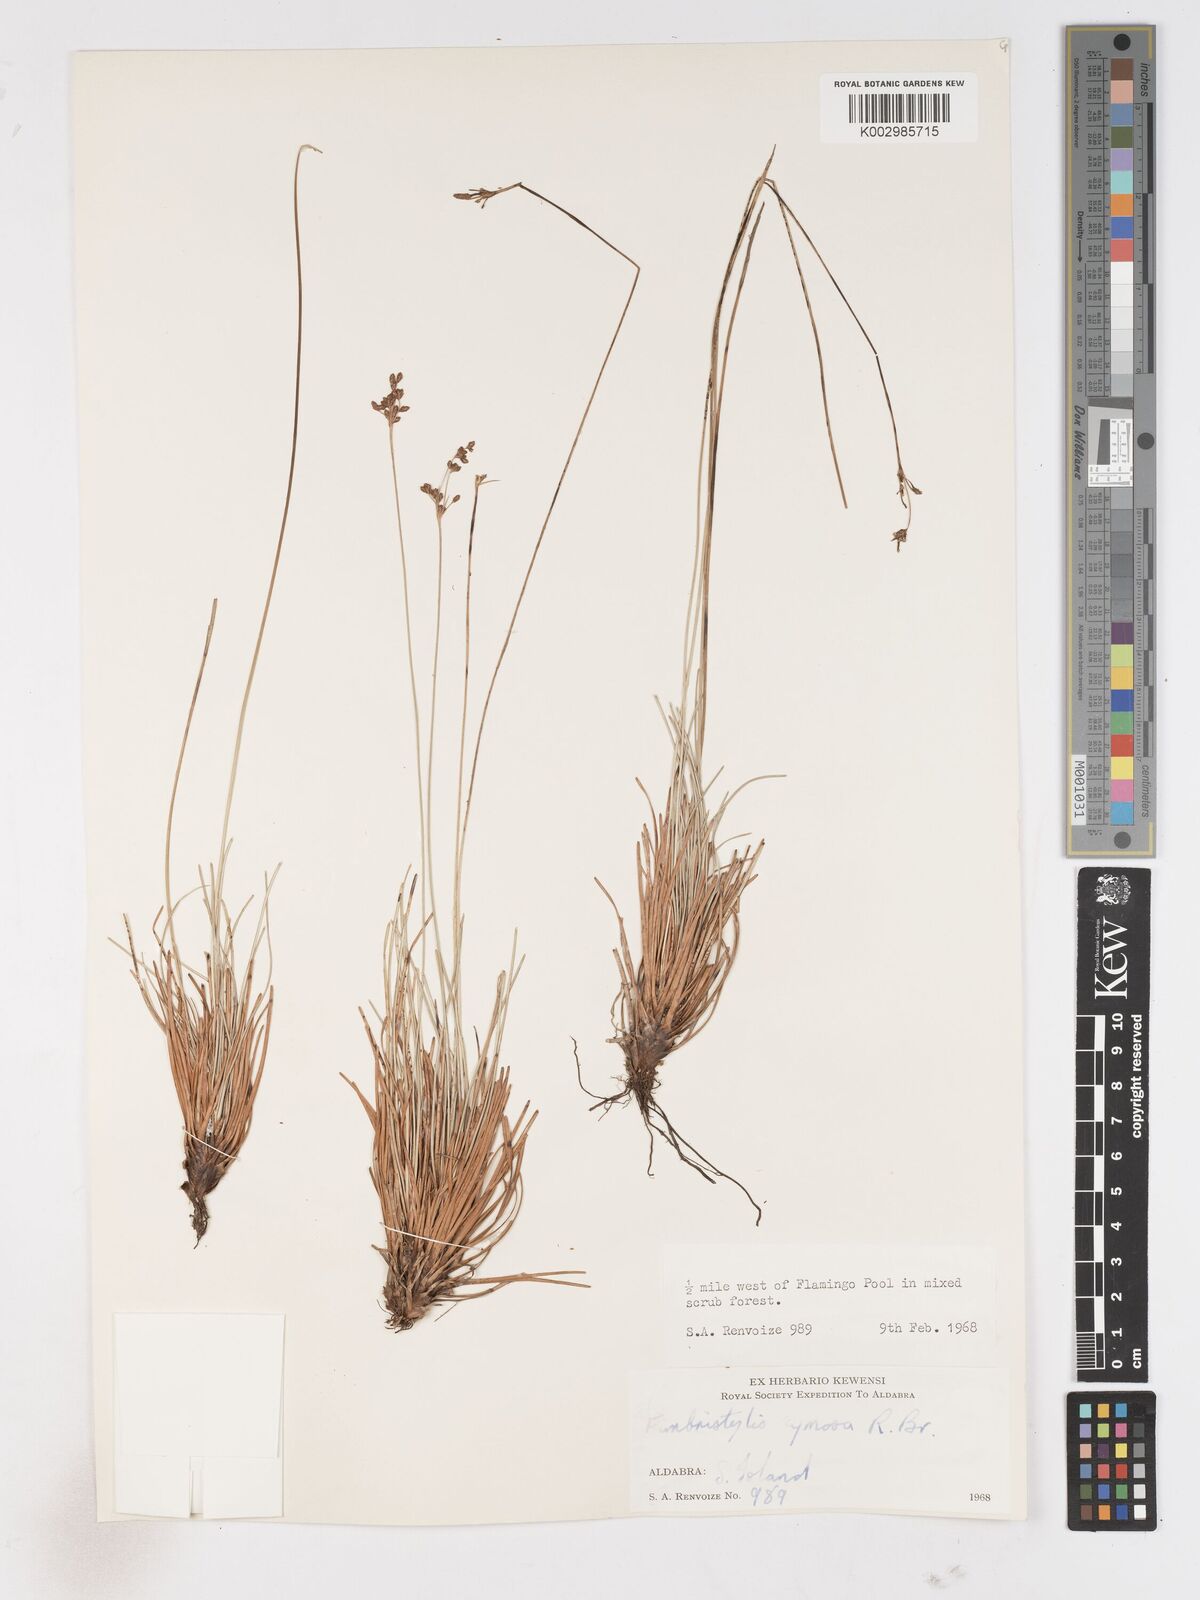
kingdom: Plantae
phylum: Tracheophyta
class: Liliopsida
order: Poales
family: Cyperaceae
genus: Fimbristylis
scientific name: Fimbristylis cymosa
